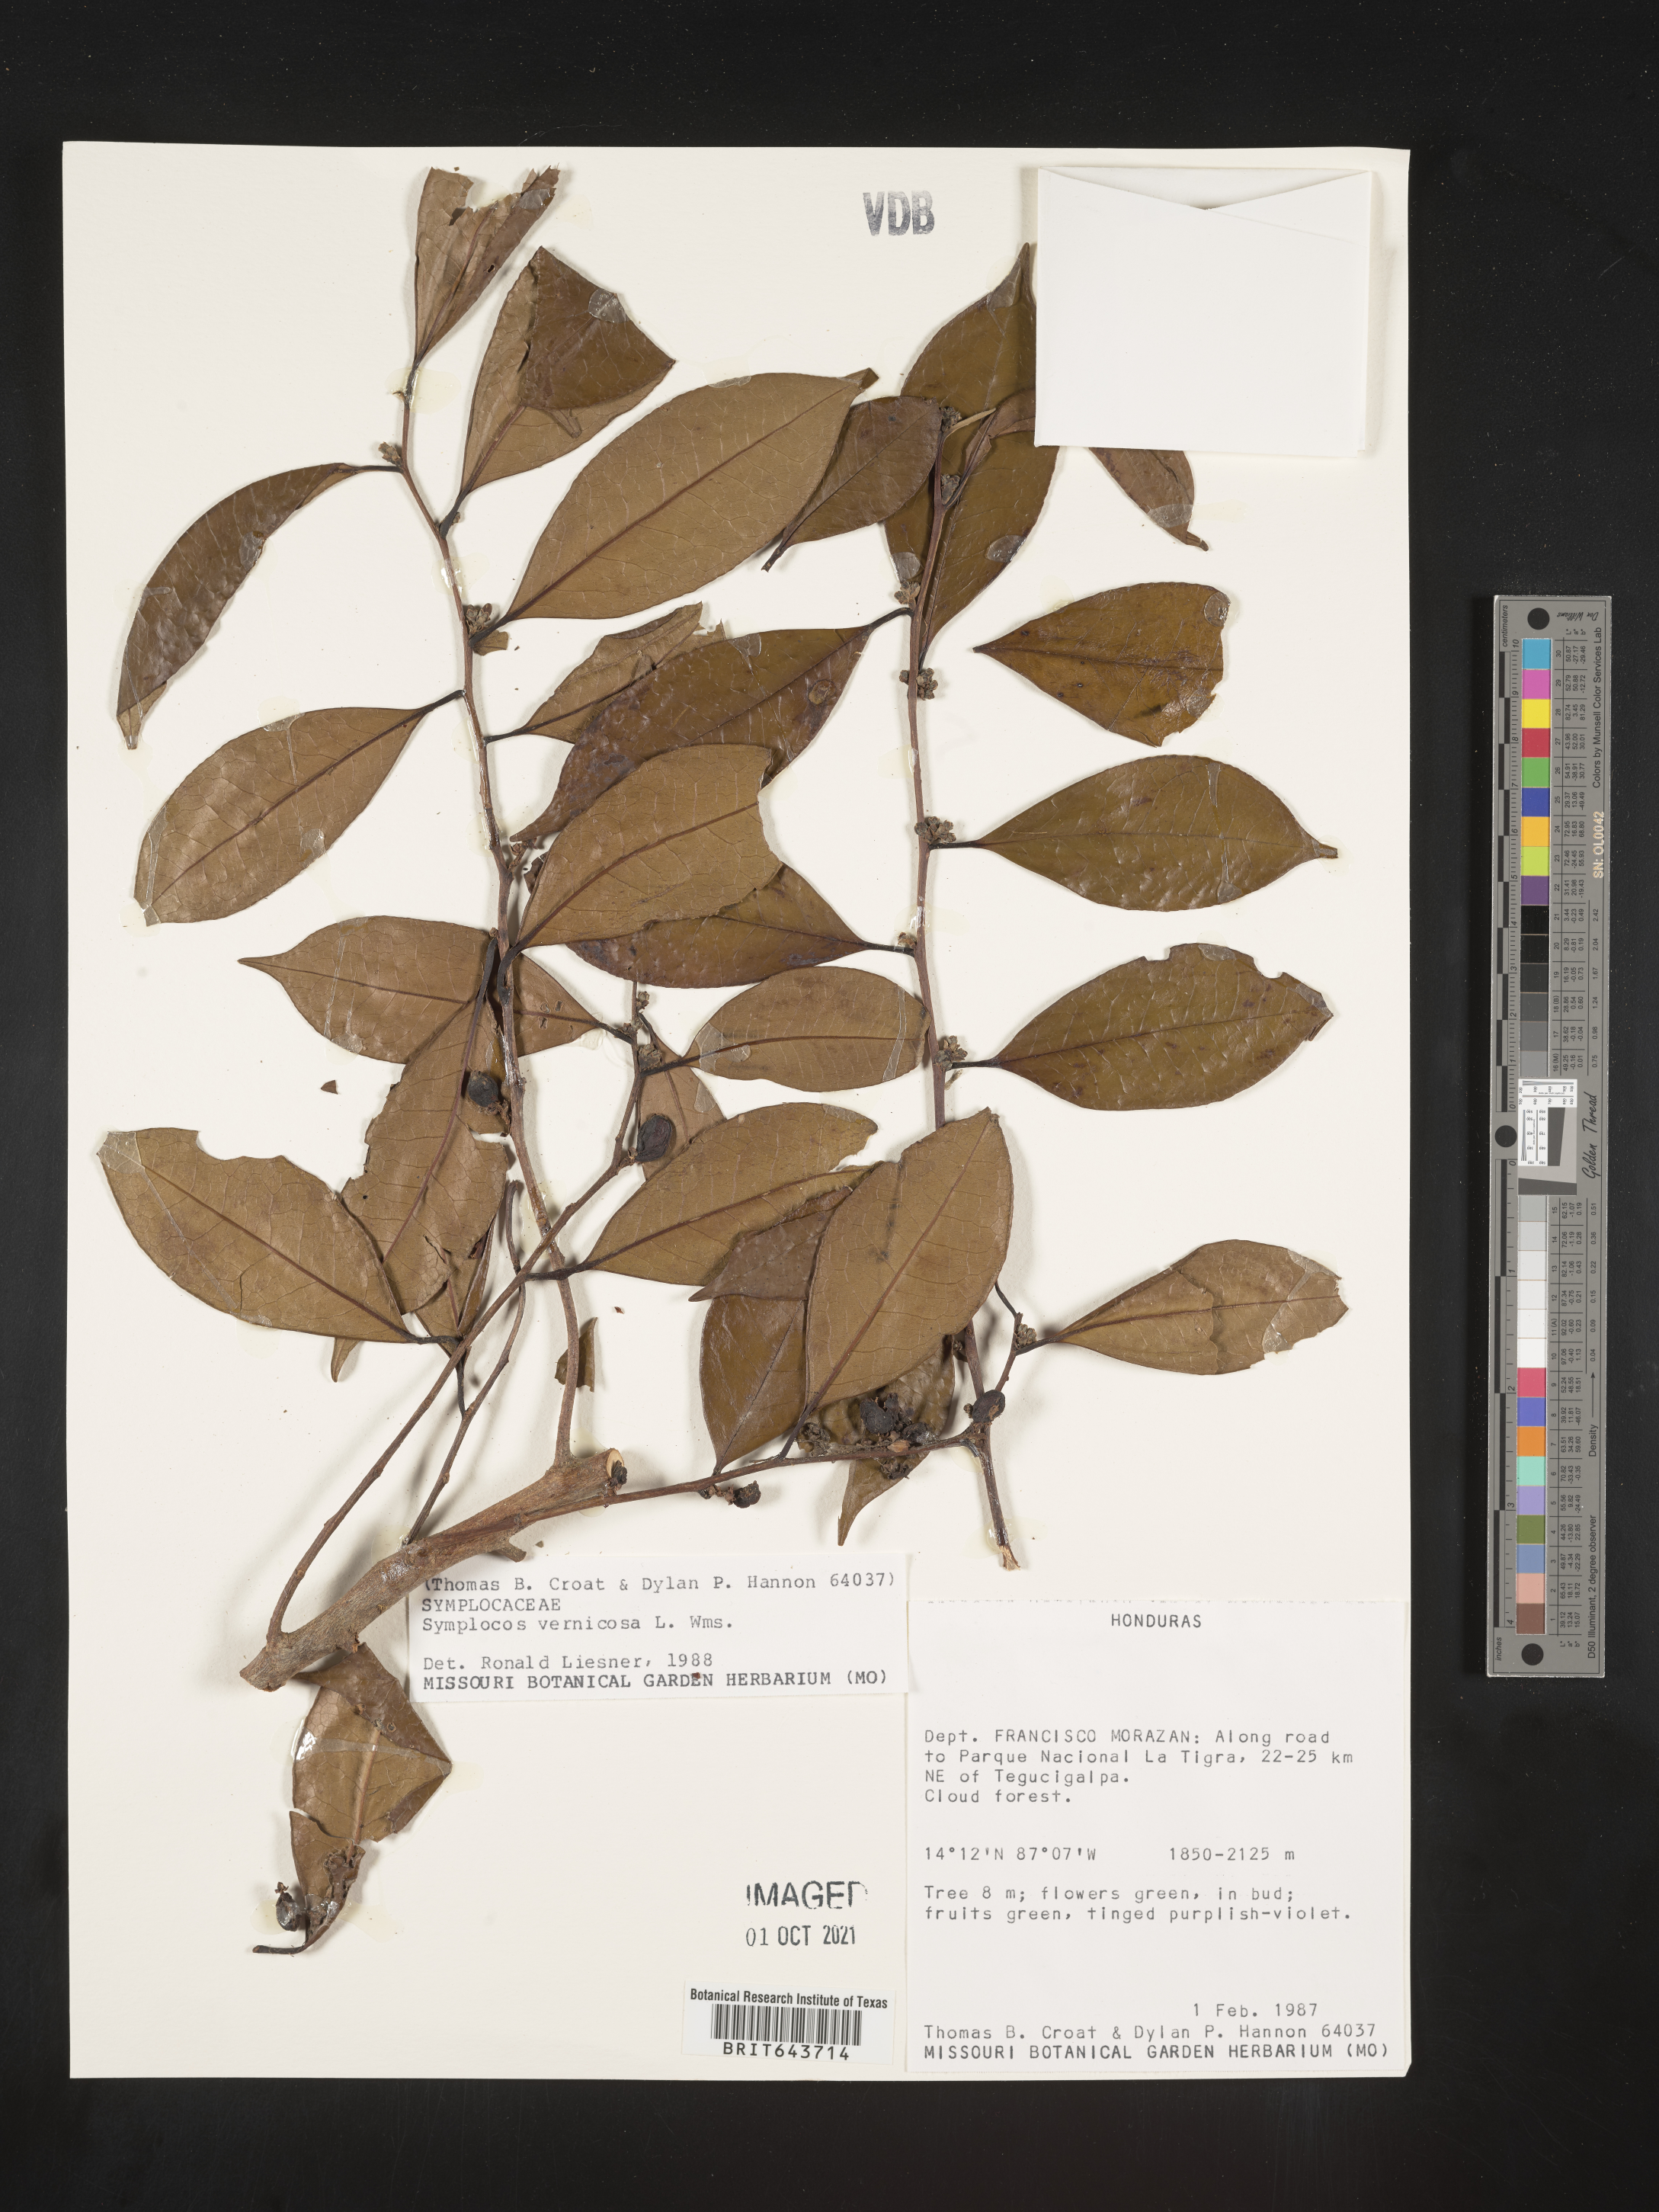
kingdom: Plantae
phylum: Tracheophyta
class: Magnoliopsida
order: Ericales
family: Symplocaceae
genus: Symplocos
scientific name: Symplocos
